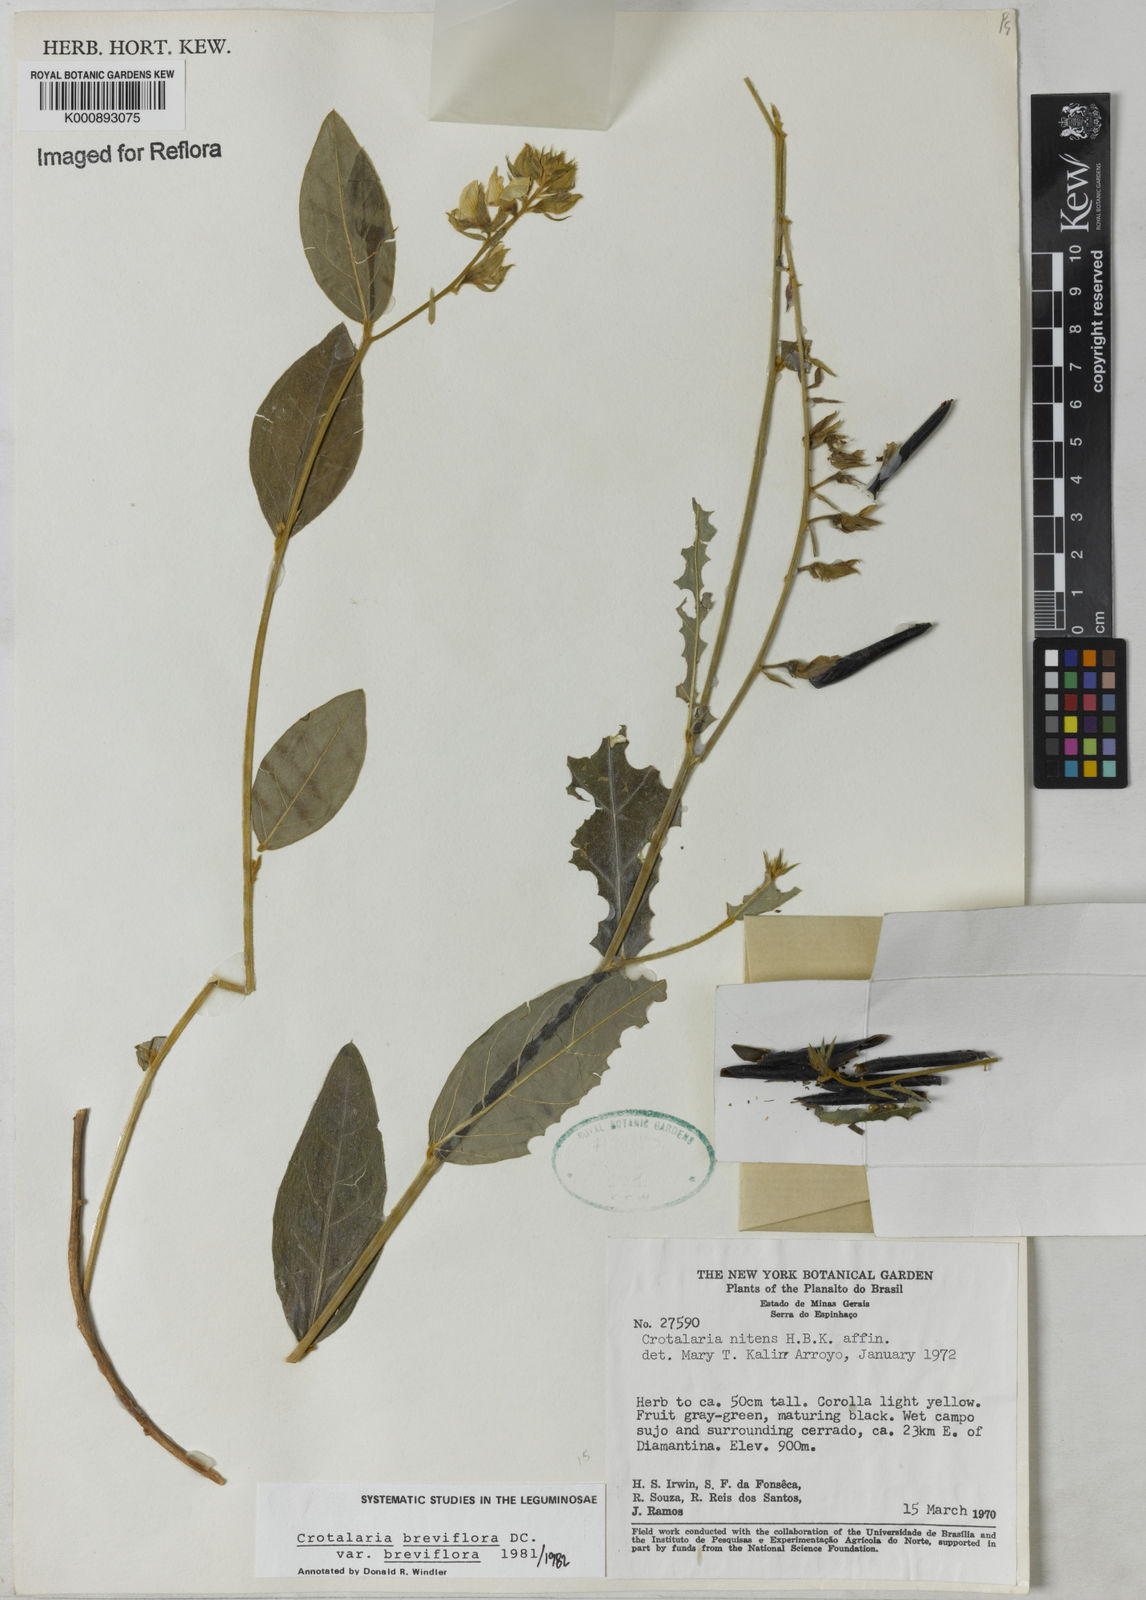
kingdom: Plantae
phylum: Tracheophyta
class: Magnoliopsida
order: Fabales
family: Fabaceae
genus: Crotalaria
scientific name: Crotalaria breviflora
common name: Short-flower crotalaria
